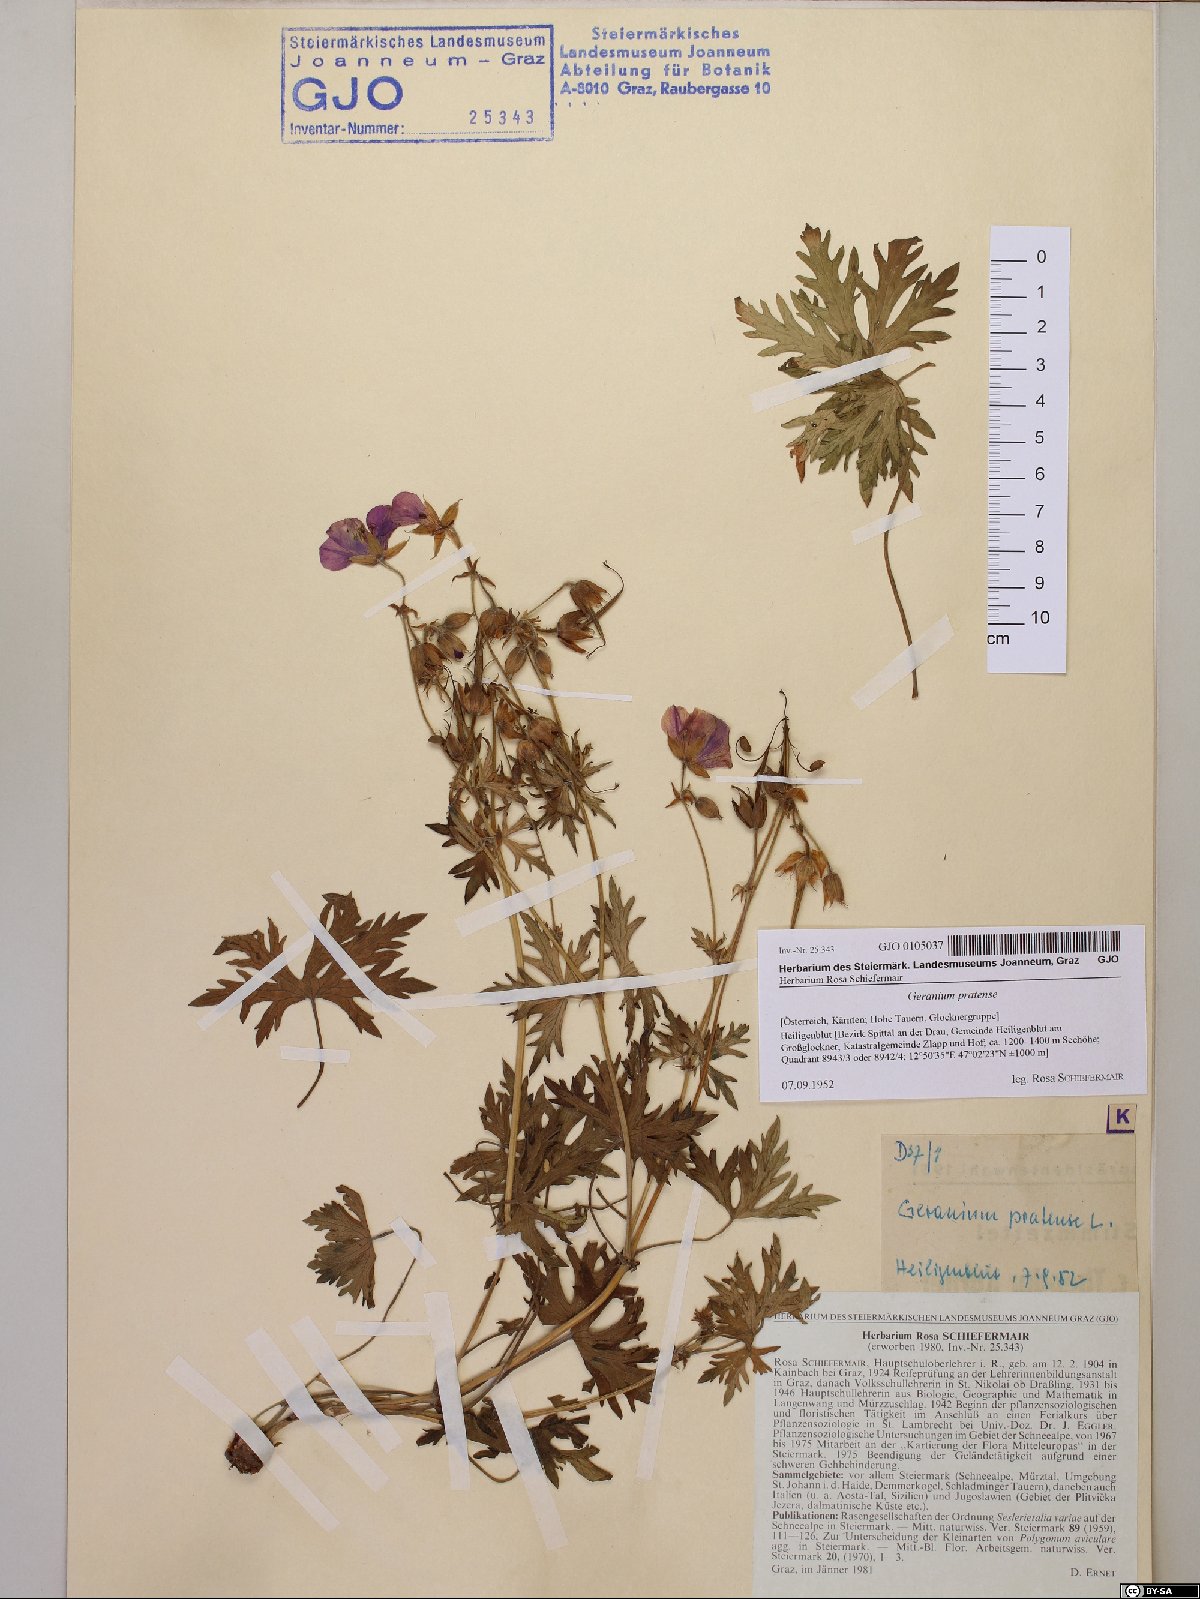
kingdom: Plantae
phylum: Tracheophyta
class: Magnoliopsida
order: Geraniales
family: Geraniaceae
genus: Geranium
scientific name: Geranium pratense
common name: Meadow crane's-bill
